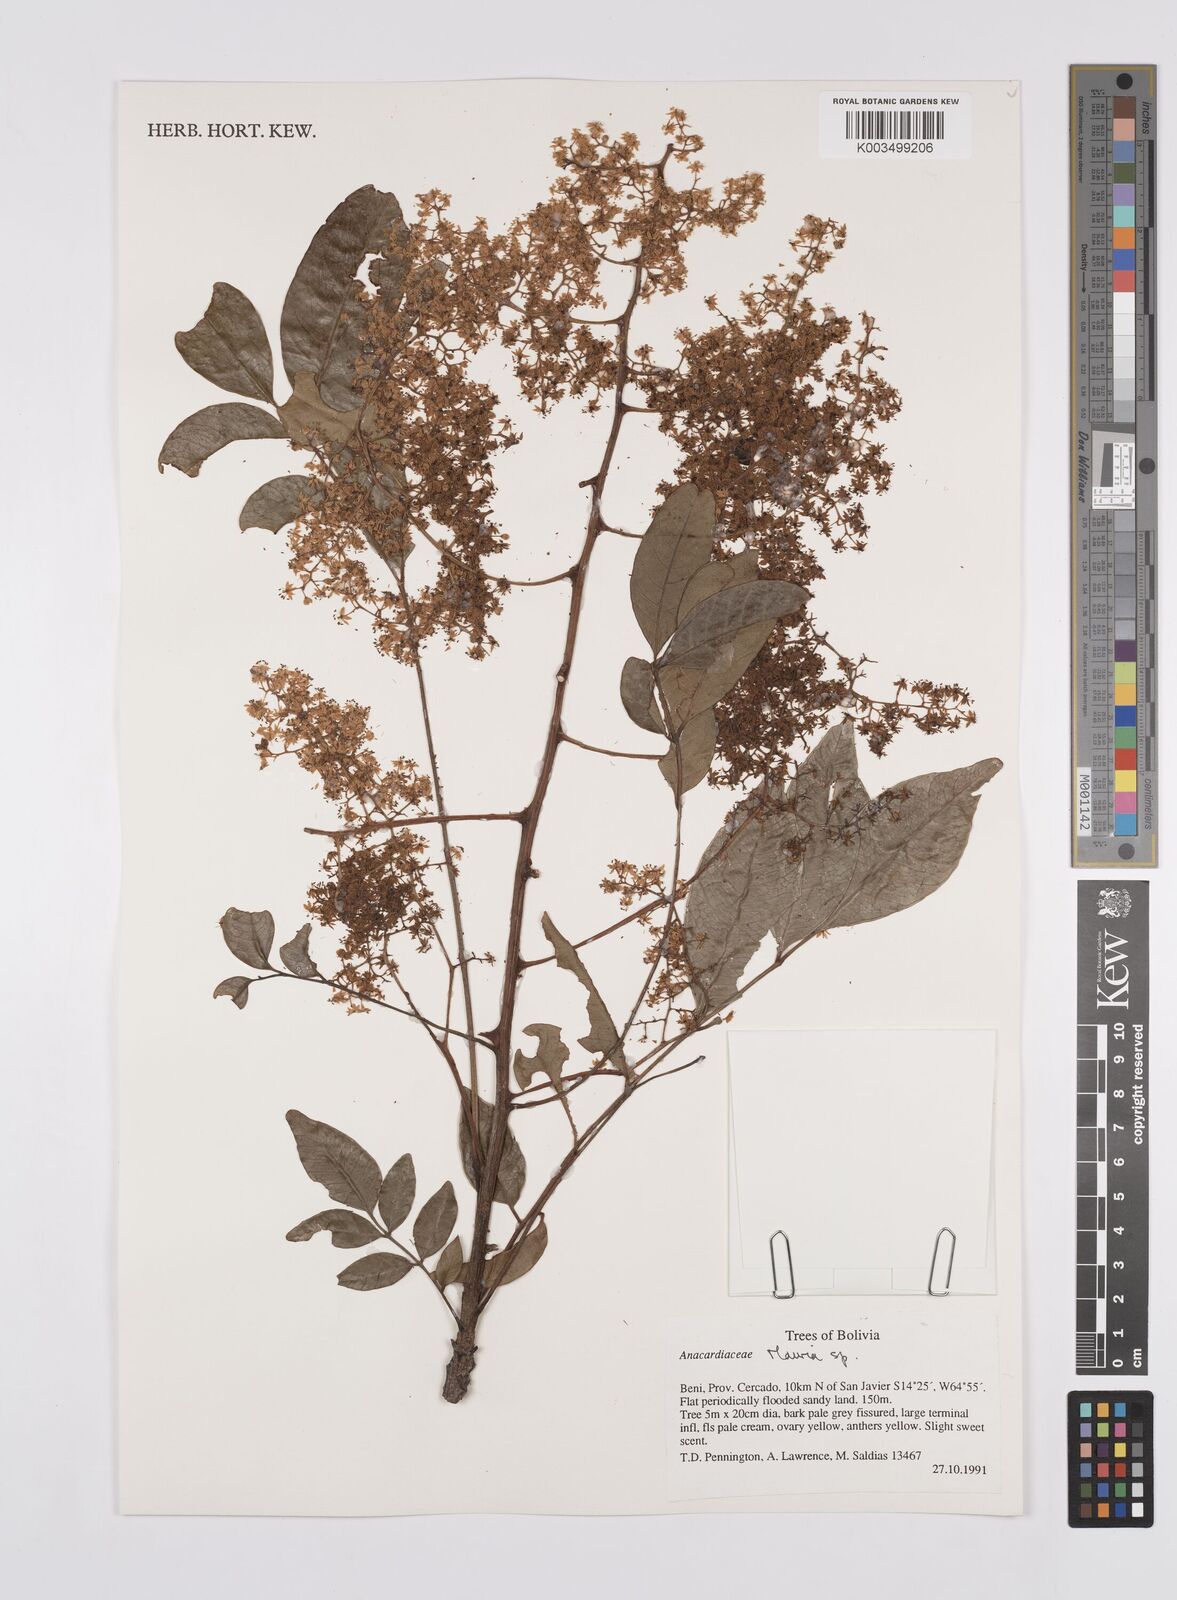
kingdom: Plantae
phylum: Tracheophyta
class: Magnoliopsida
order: Sapindales
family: Anacardiaceae
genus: Mauria
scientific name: Mauria
